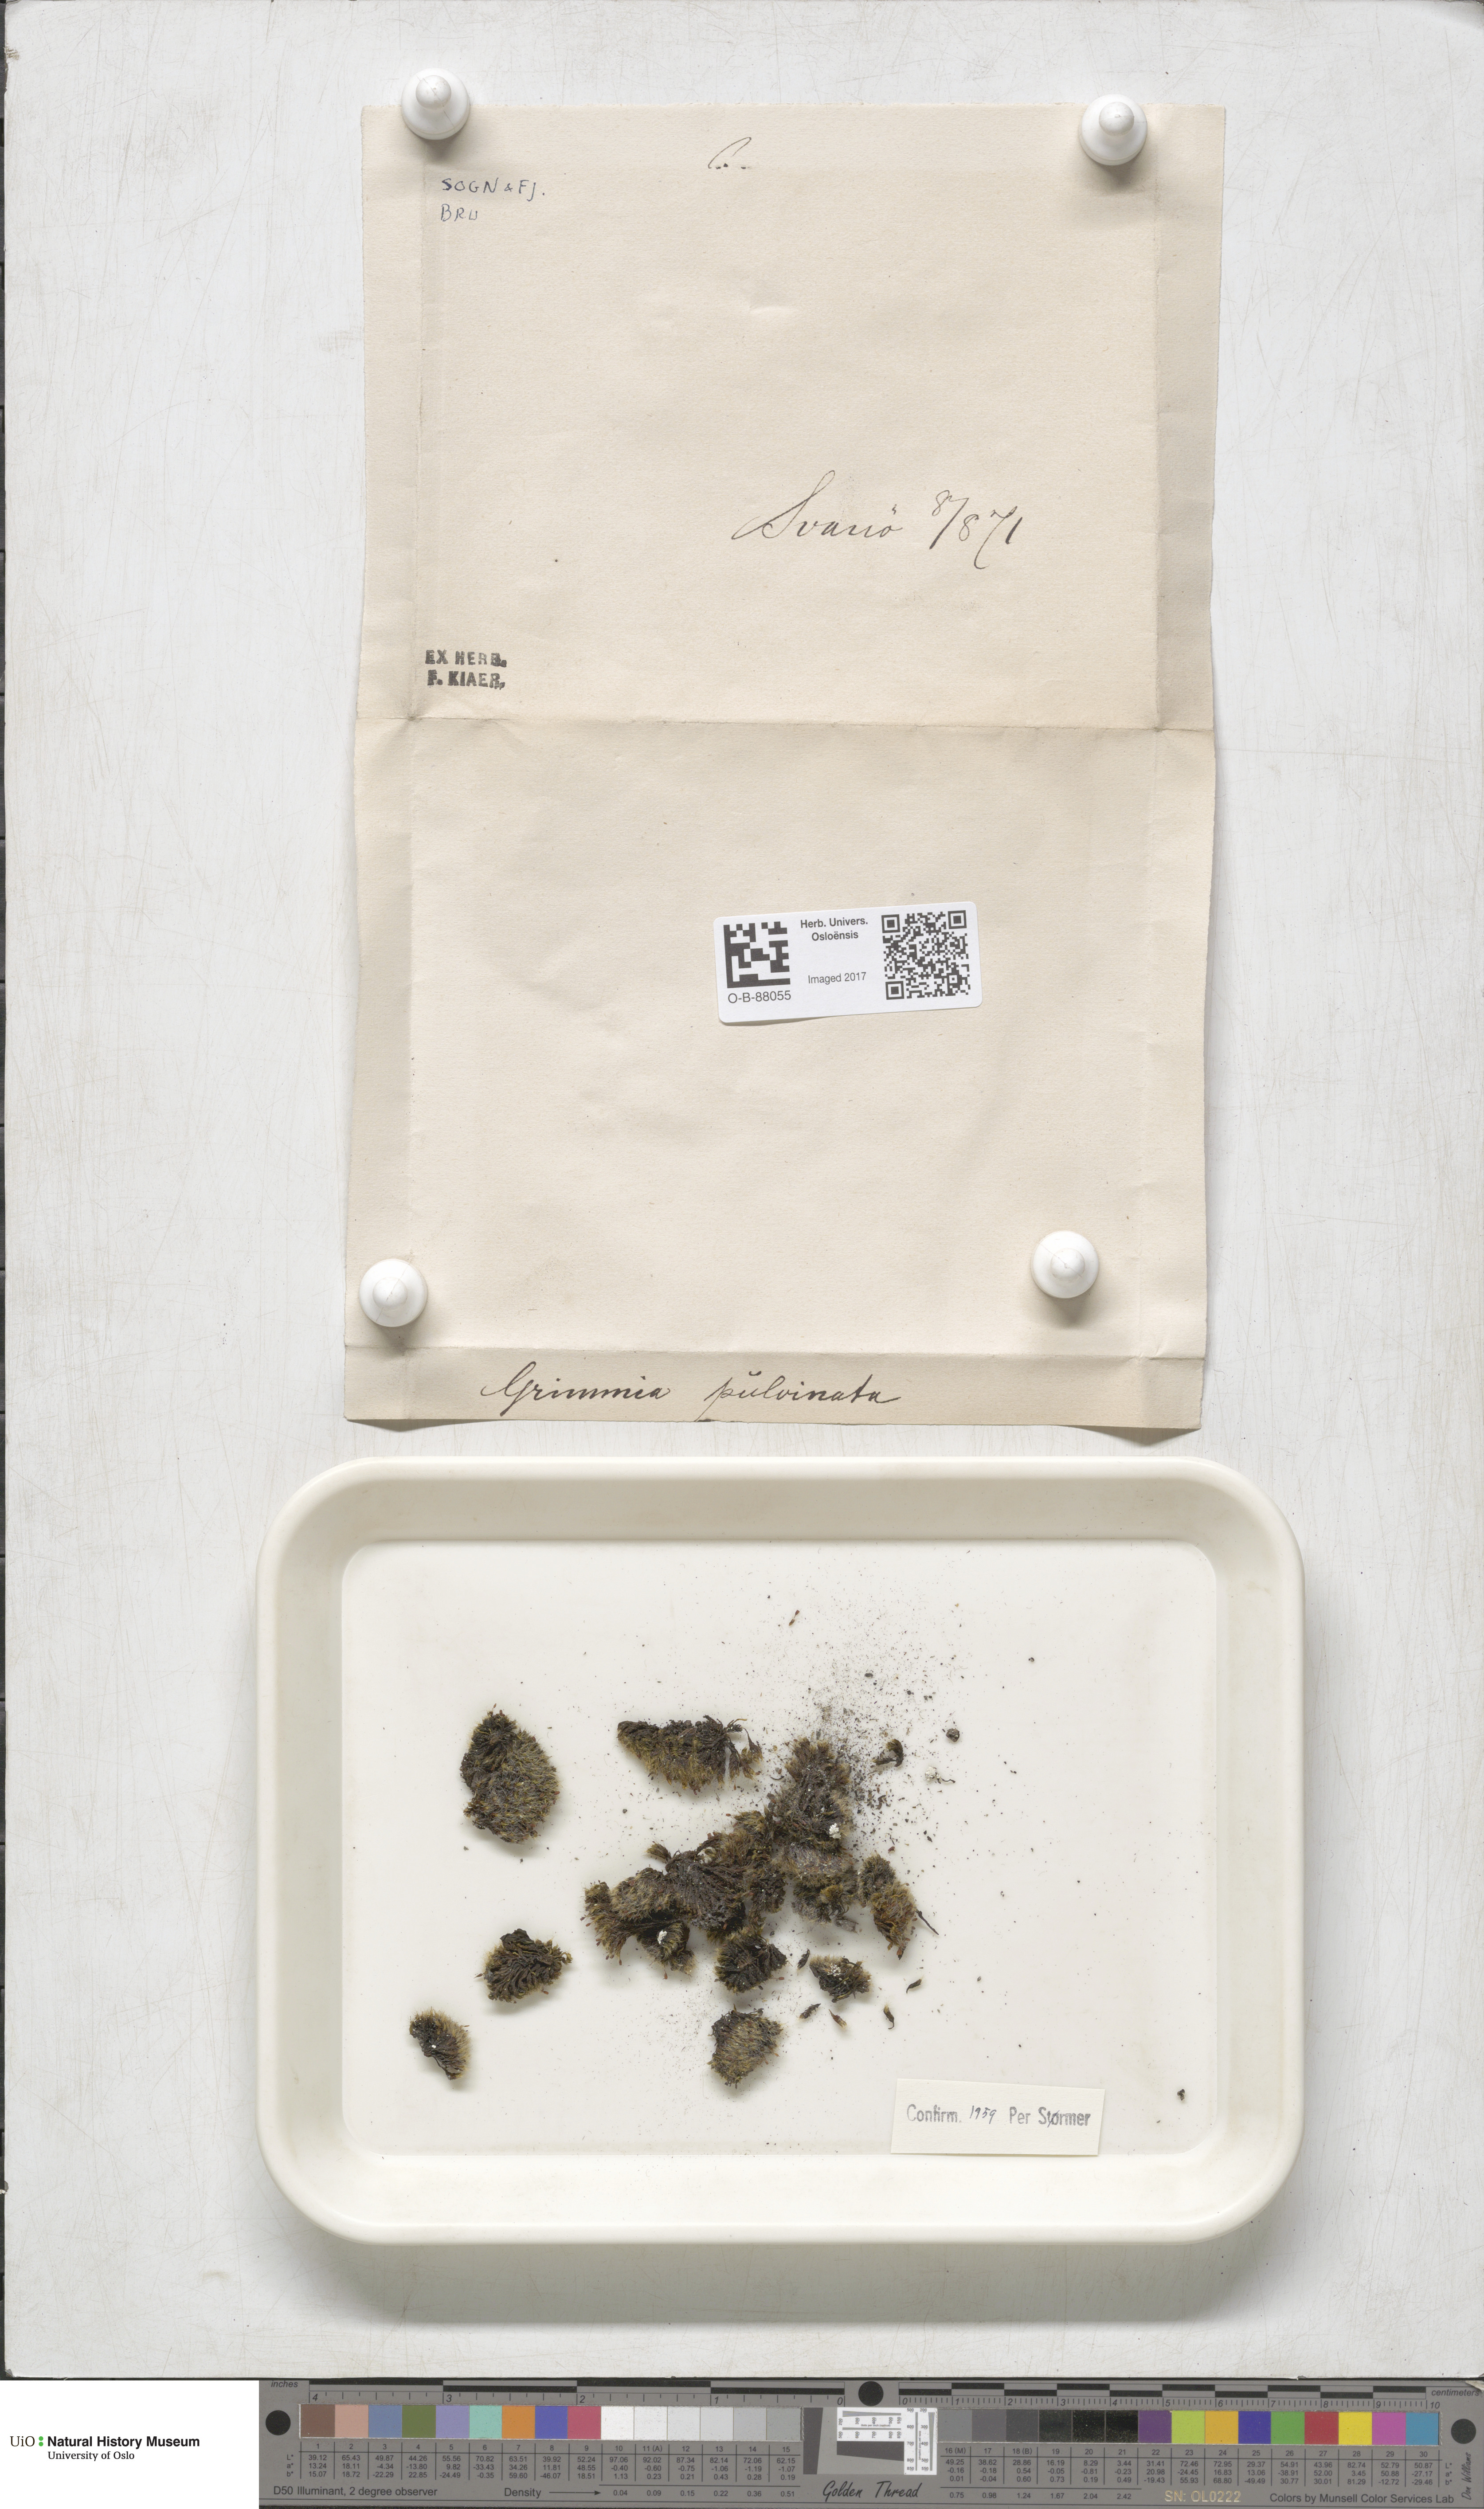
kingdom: Plantae
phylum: Bryophyta
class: Bryopsida
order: Grimmiales
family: Grimmiaceae
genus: Grimmia
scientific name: Grimmia pulvinata
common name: Grey-cushioned grimmia
